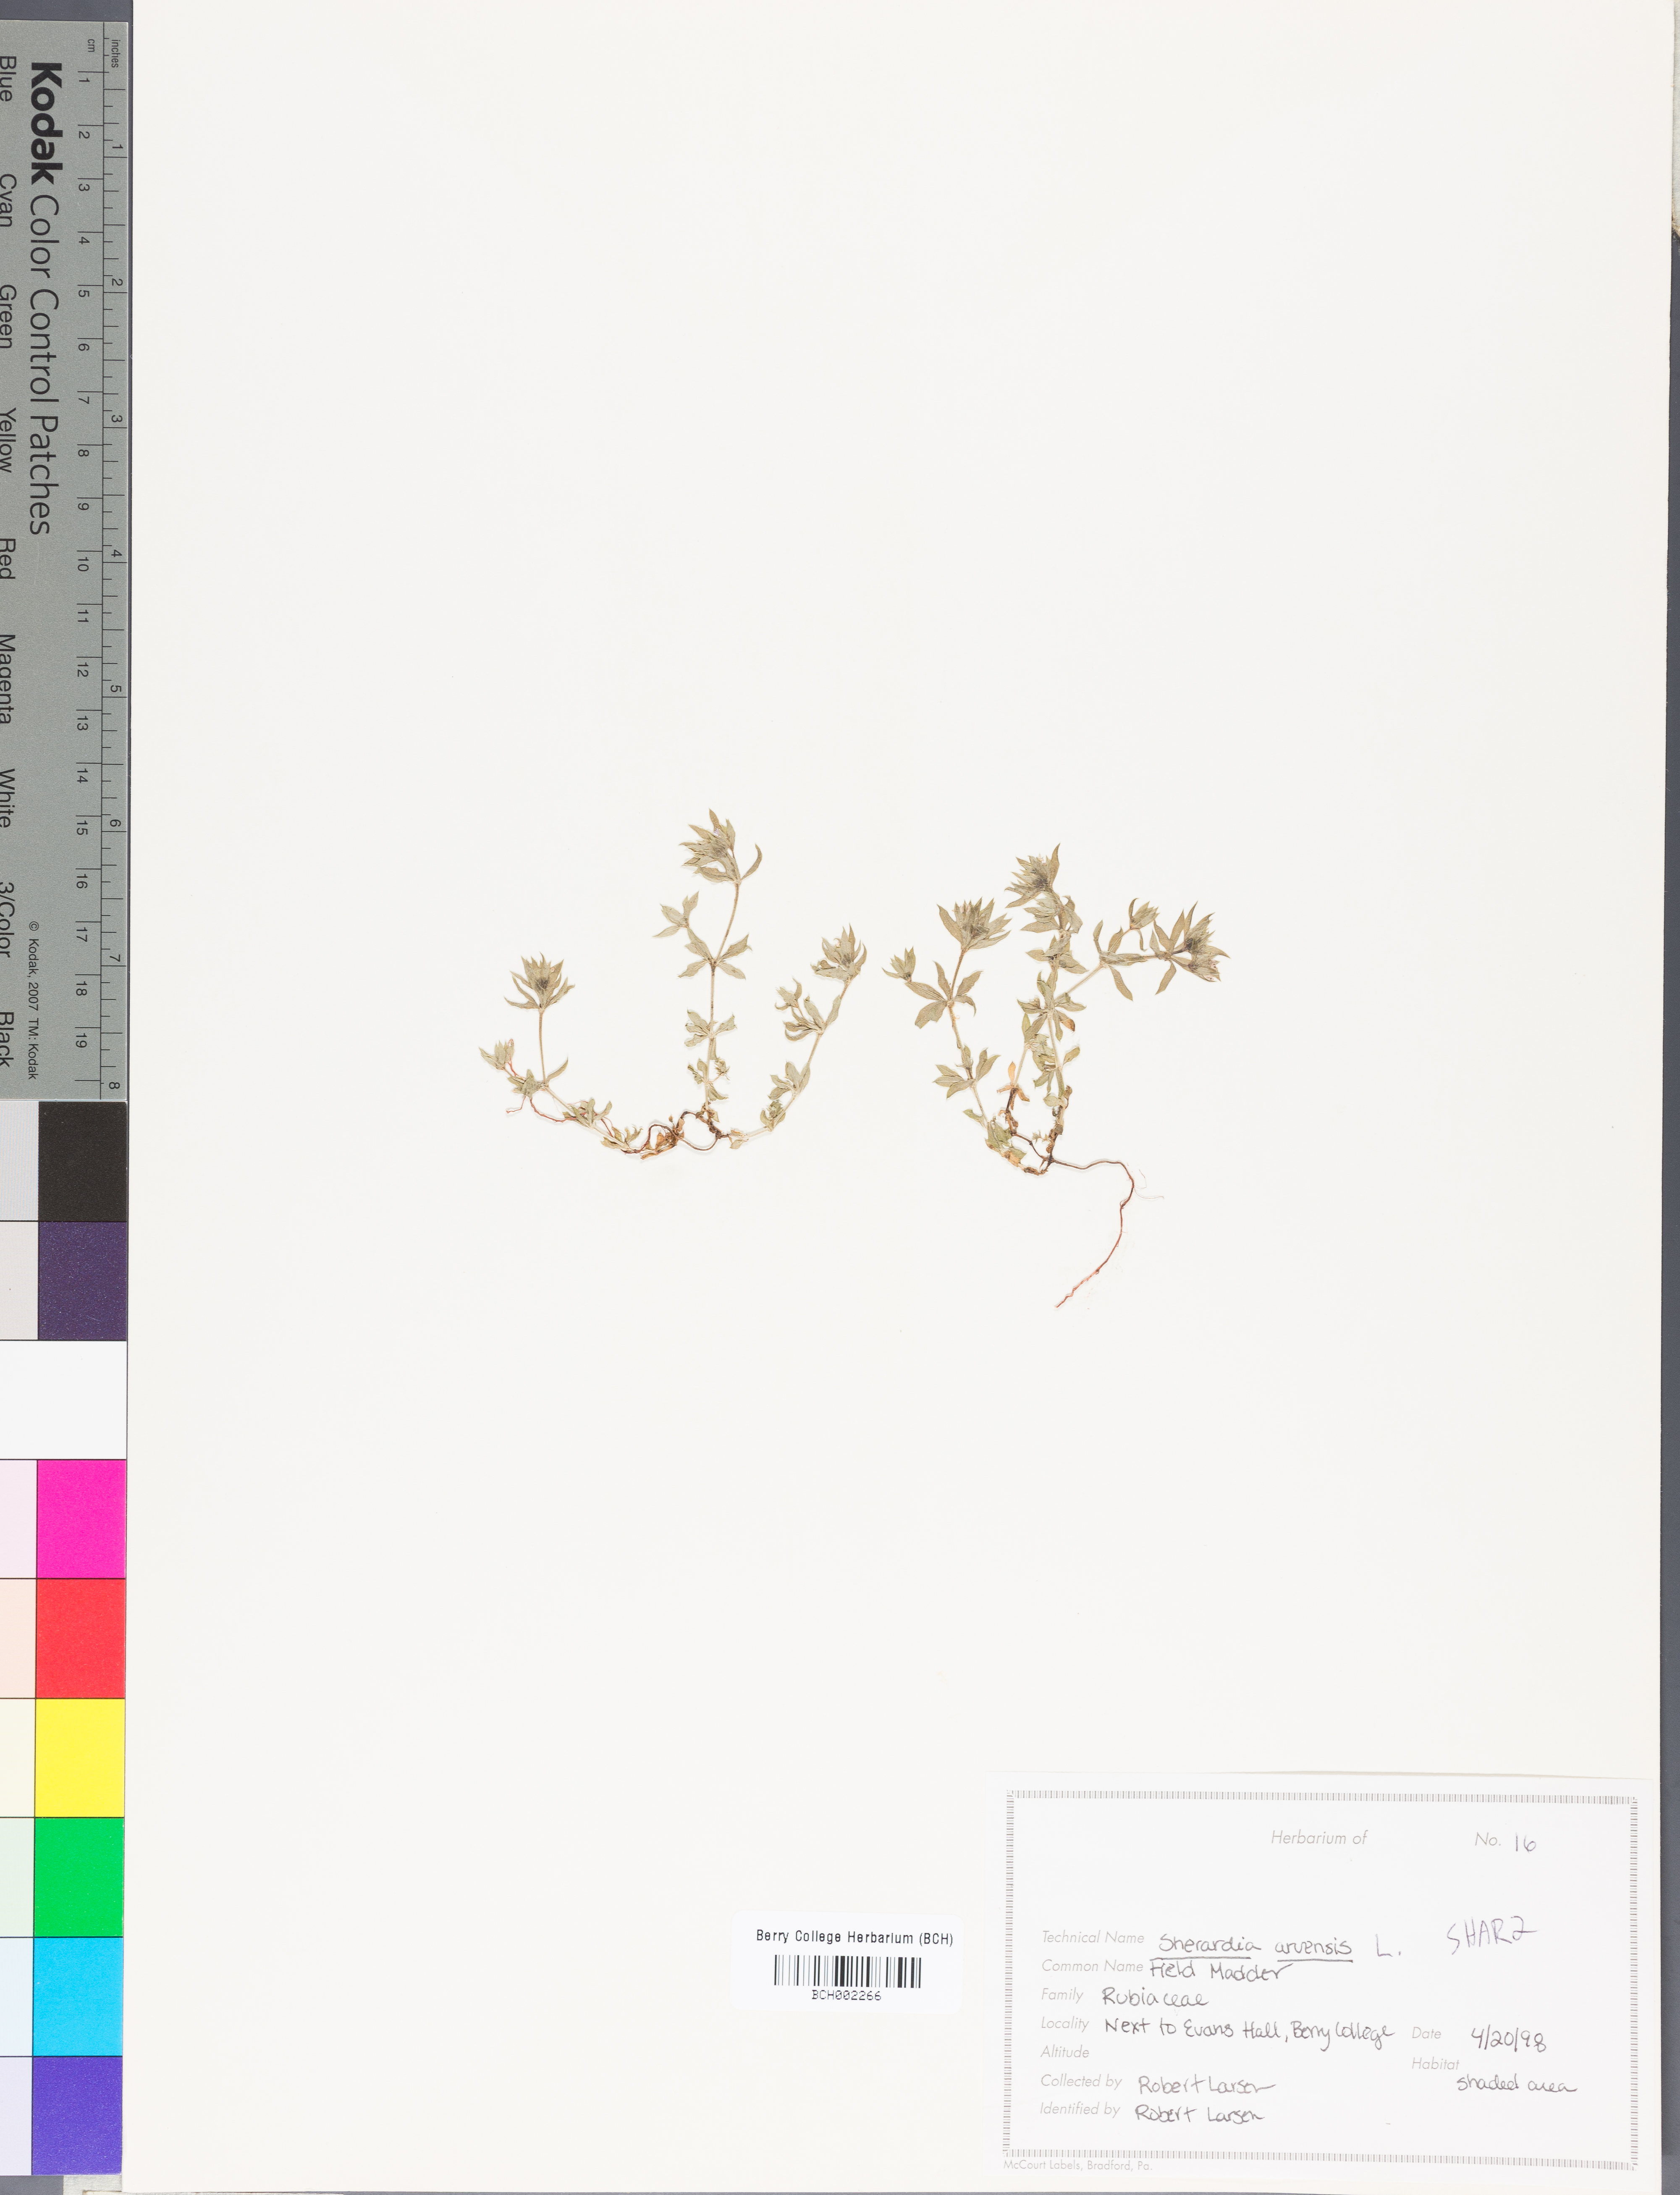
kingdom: Plantae
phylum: Tracheophyta
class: Magnoliopsida
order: Gentianales
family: Rubiaceae
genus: Sherardia
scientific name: Sherardia arvensis
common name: Field madder
